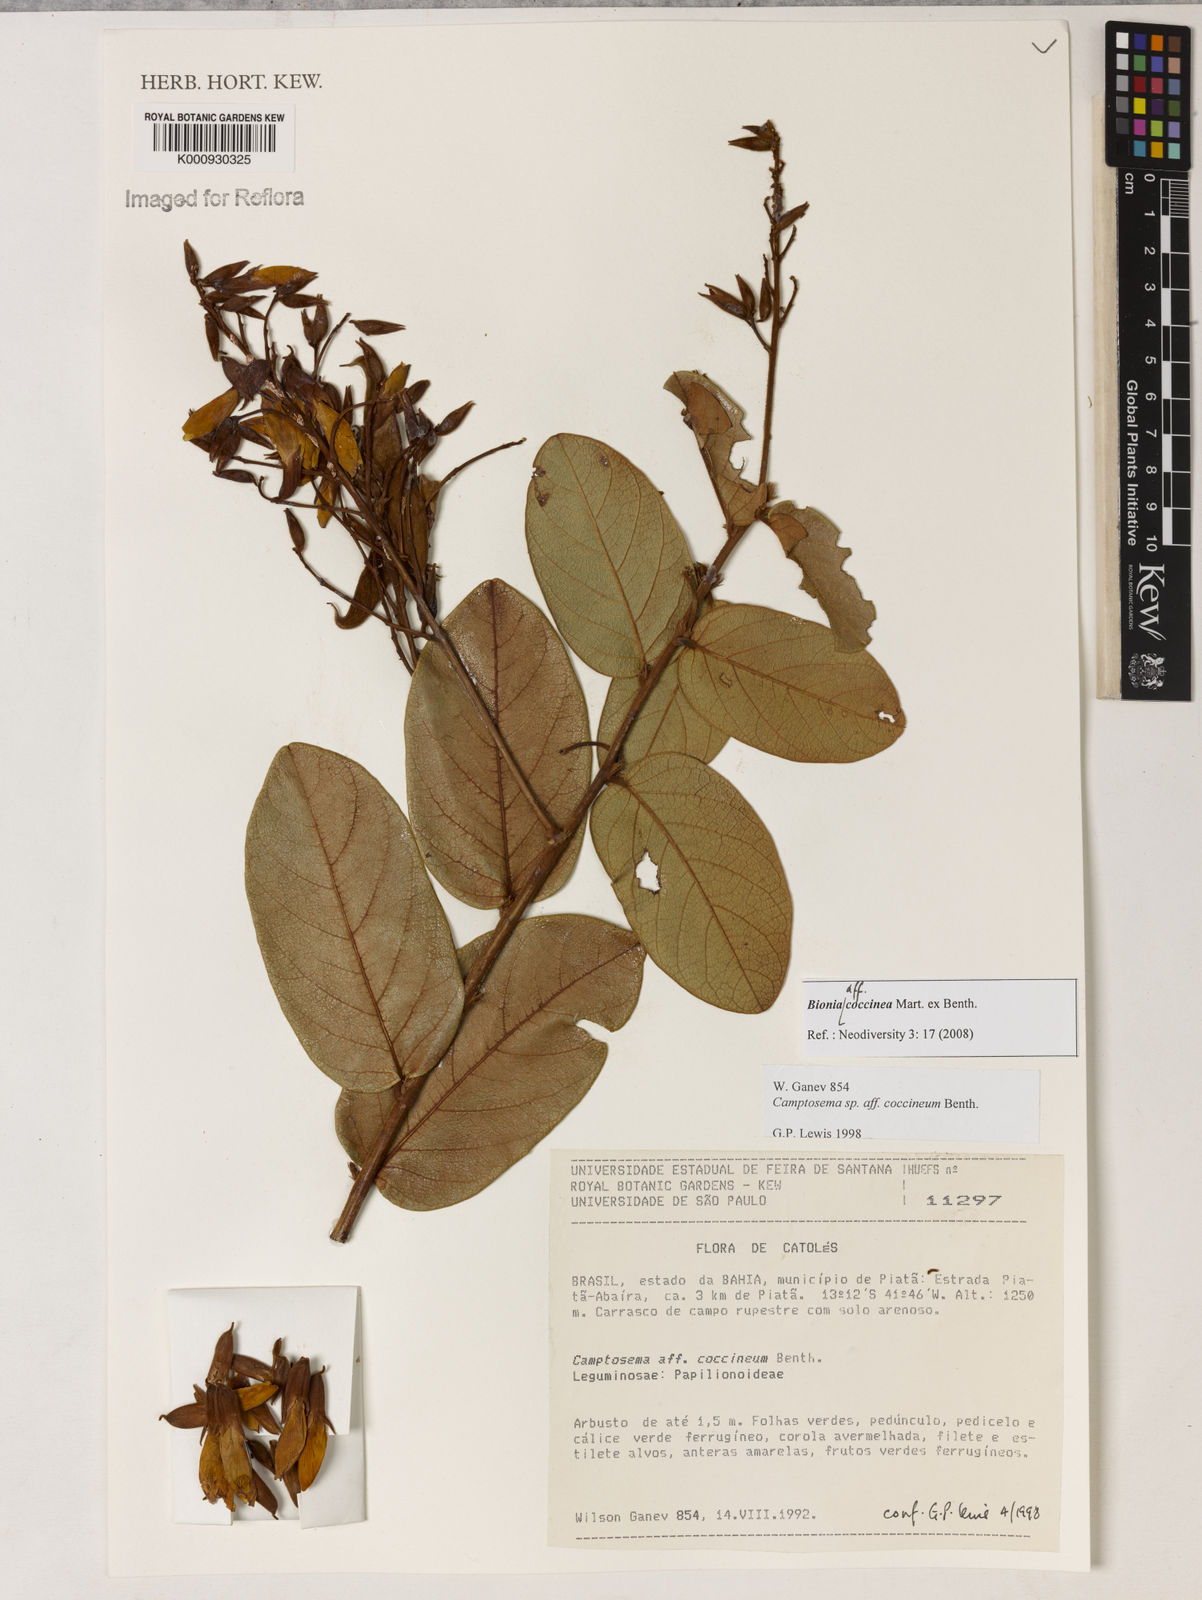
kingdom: Plantae
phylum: Tracheophyta
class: Magnoliopsida
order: Fabales
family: Fabaceae
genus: Camptosema
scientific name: Camptosema coccineum
